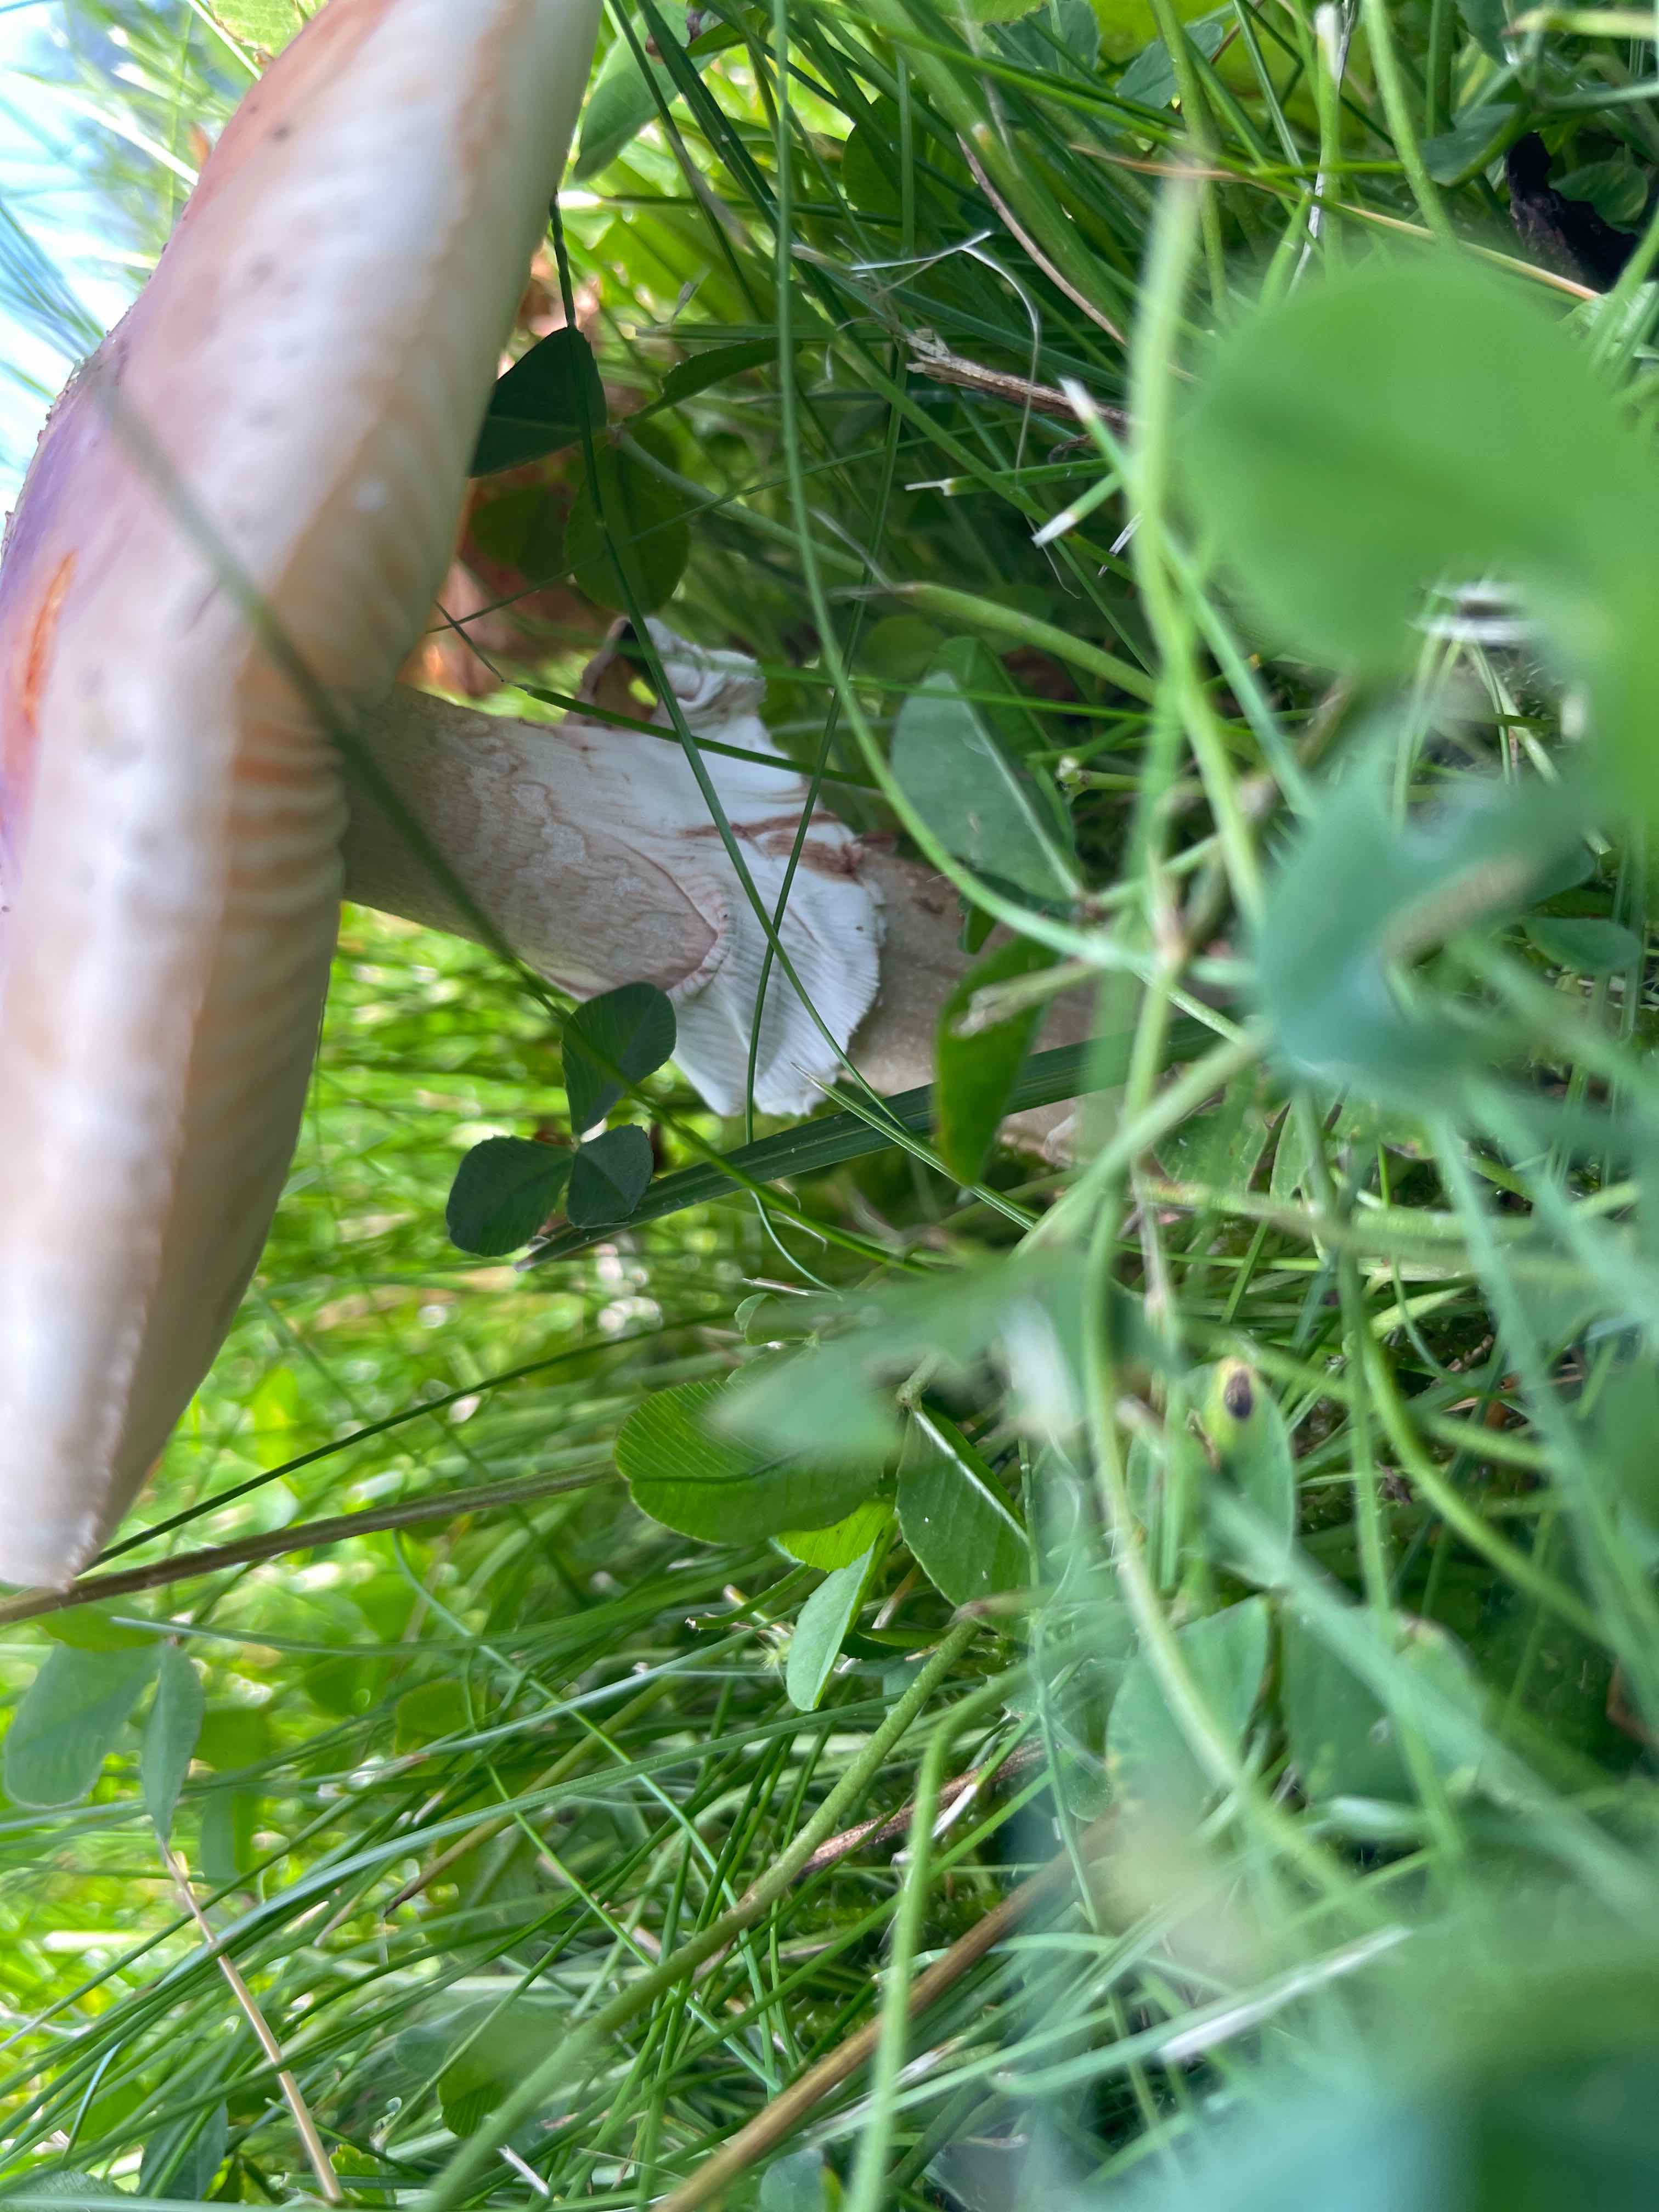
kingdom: Fungi
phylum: Basidiomycota
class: Agaricomycetes
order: Agaricales
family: Amanitaceae
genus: Amanita
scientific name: Amanita rubescens
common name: rødmende fluesvamp
